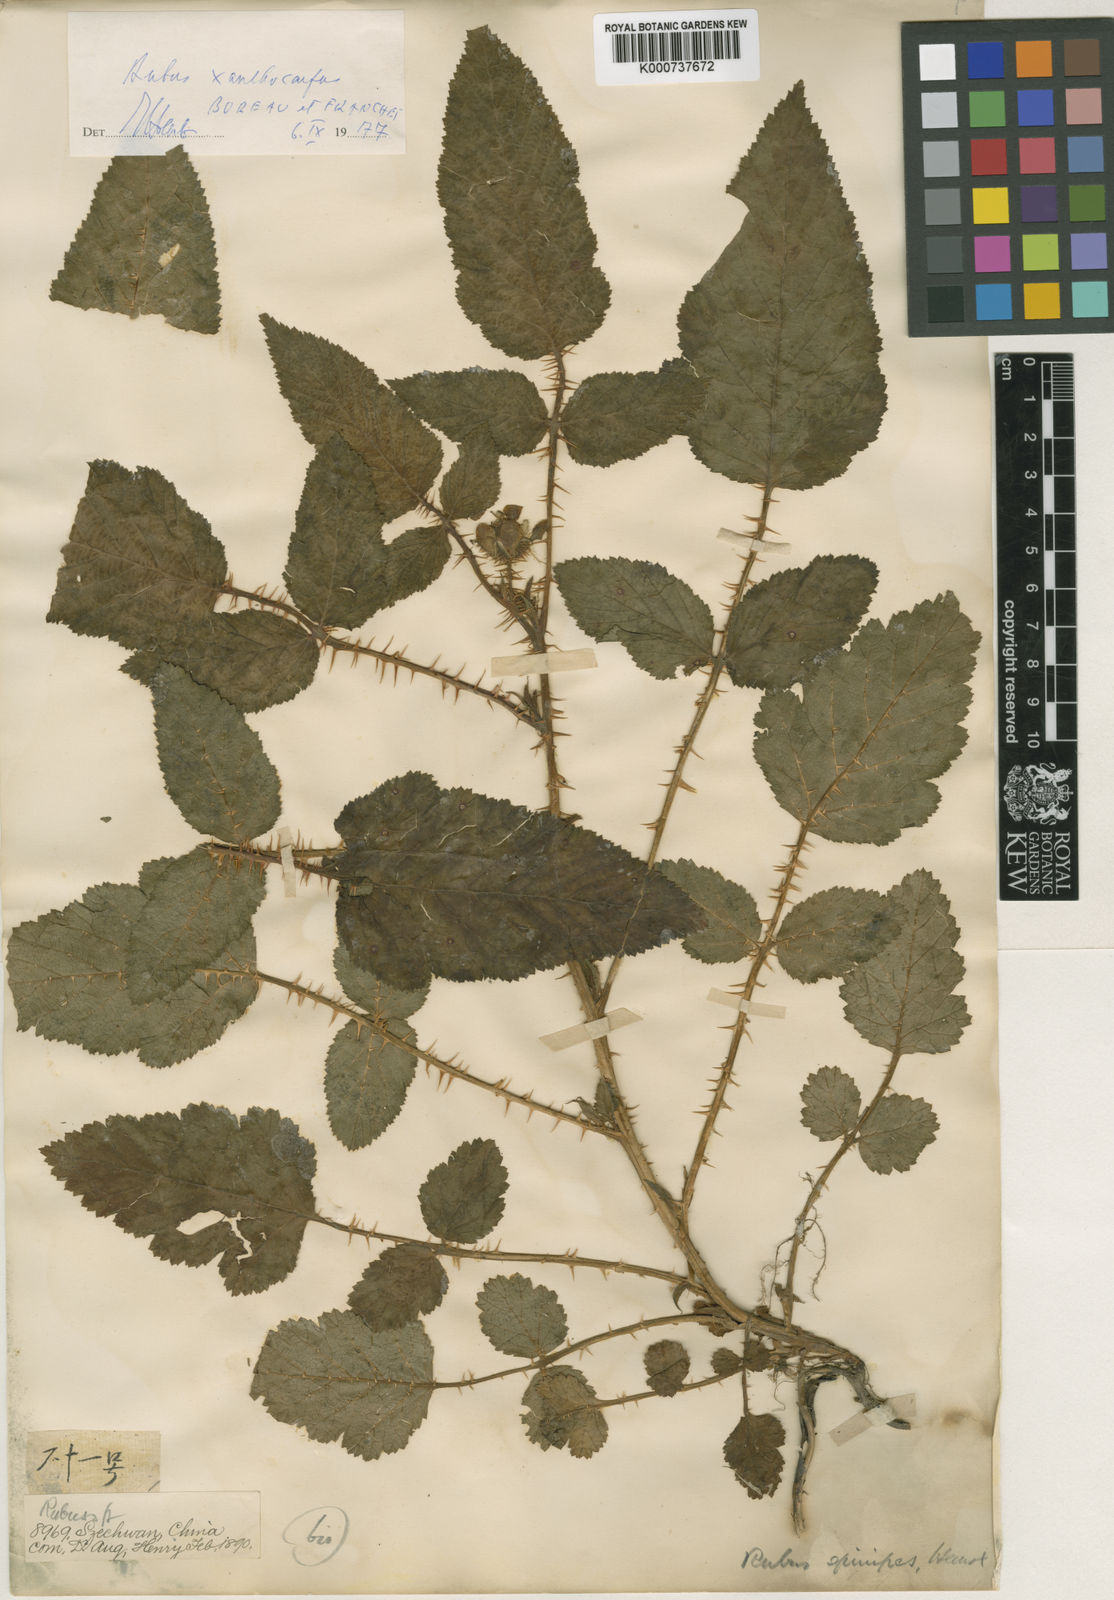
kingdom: Plantae
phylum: Tracheophyta
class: Magnoliopsida
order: Rosales
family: Rosaceae
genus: Rubus
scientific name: Rubus xanthocarpus
